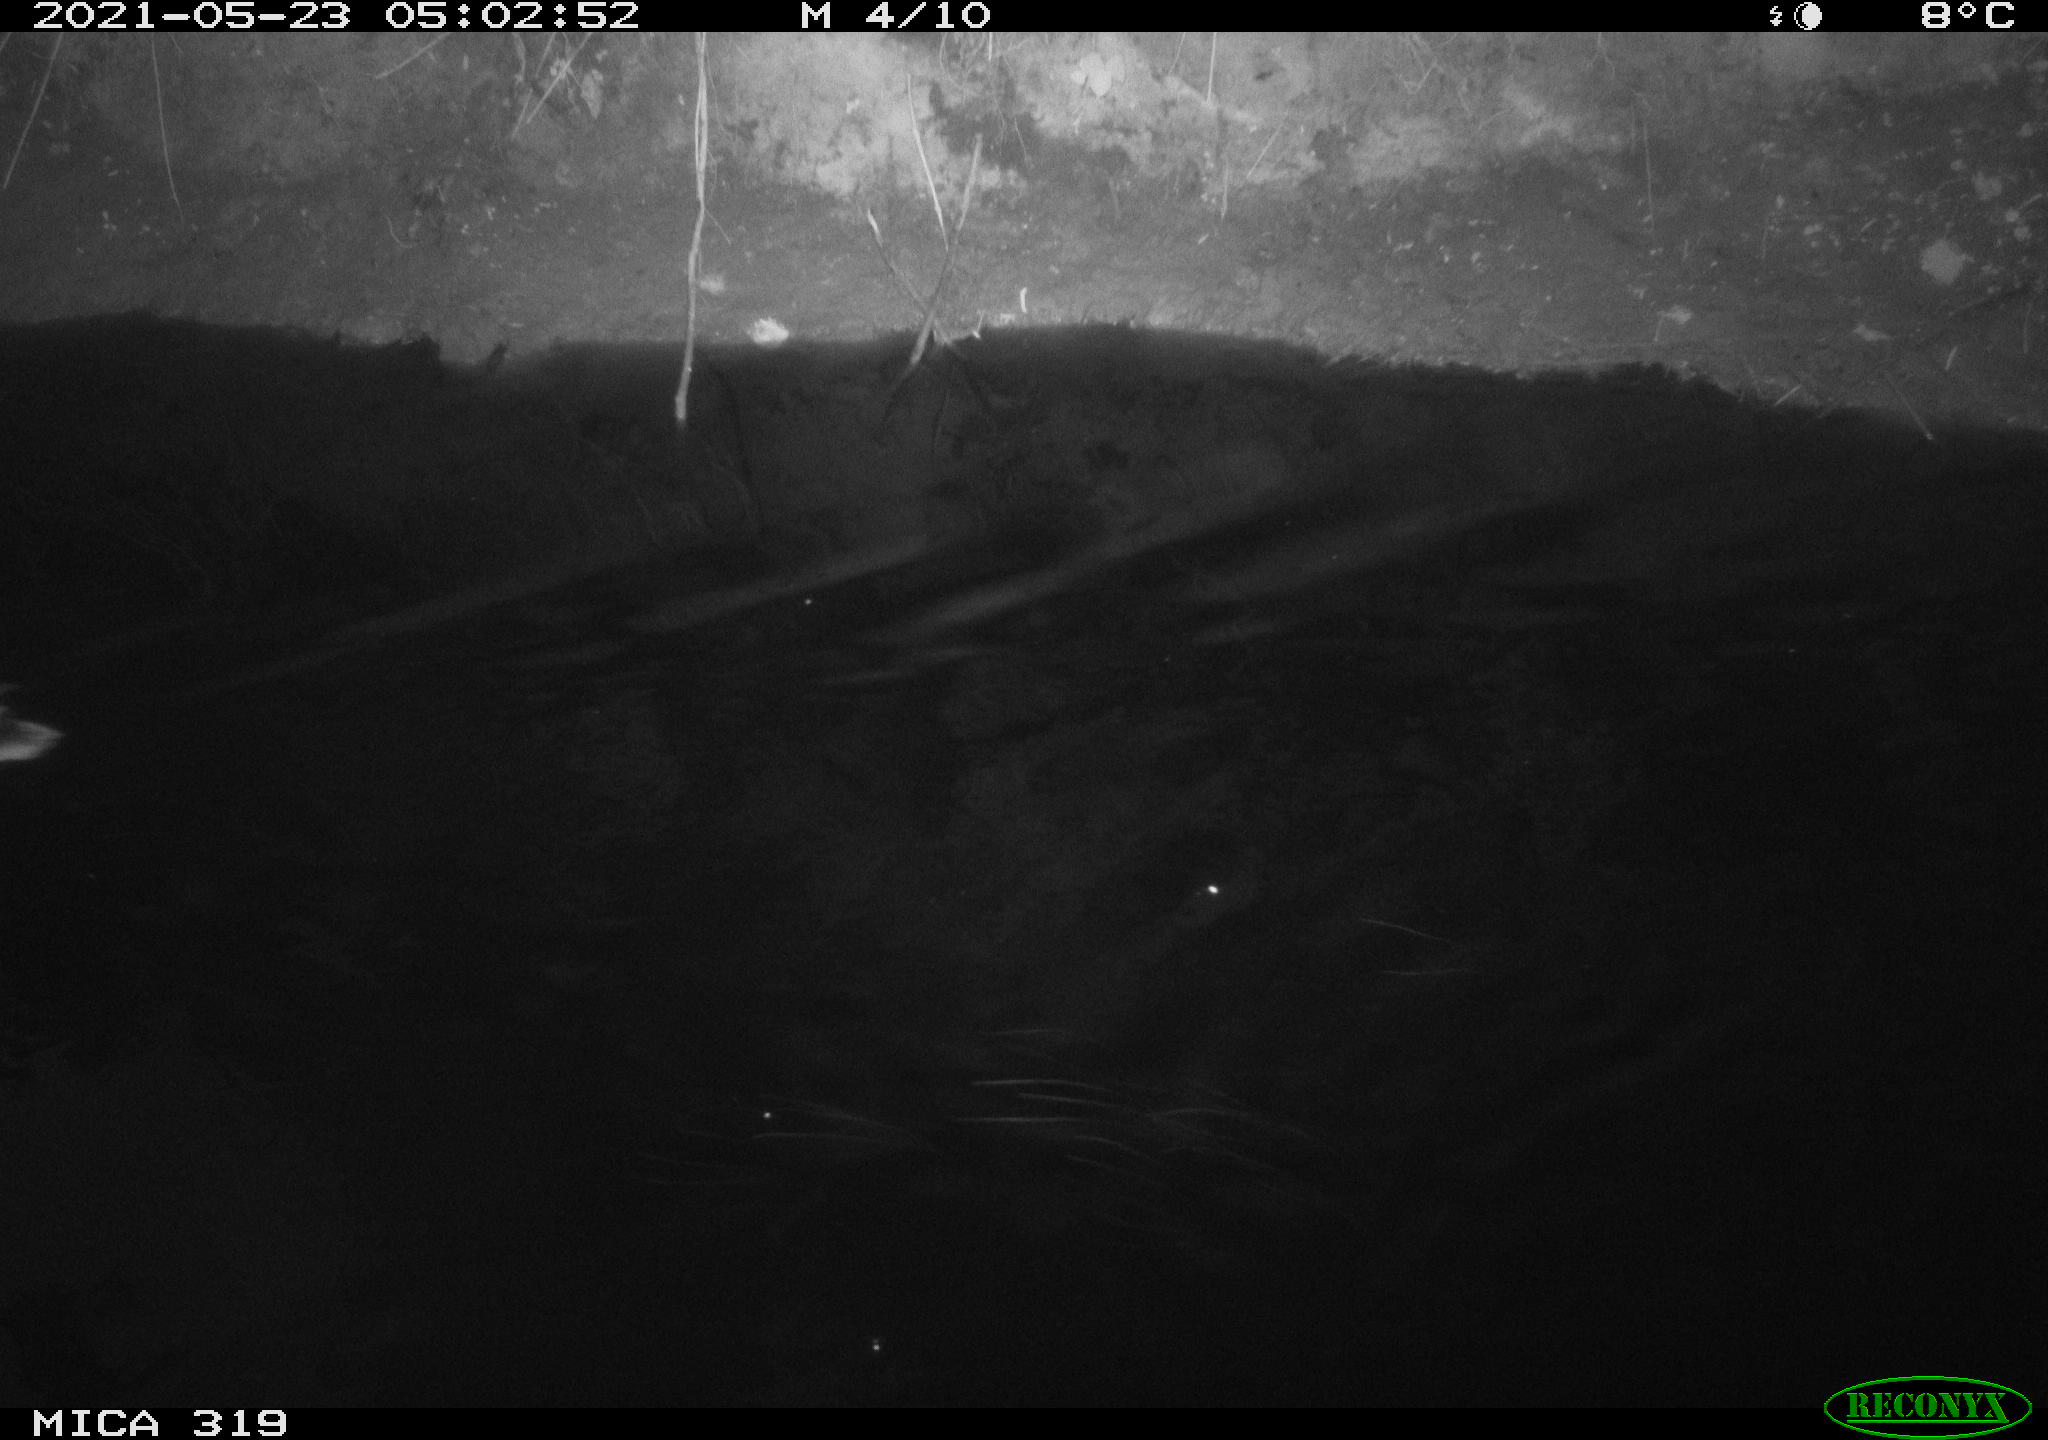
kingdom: Animalia
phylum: Chordata
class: Aves
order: Anseriformes
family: Anatidae
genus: Anas
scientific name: Anas platyrhynchos
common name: Mallard
